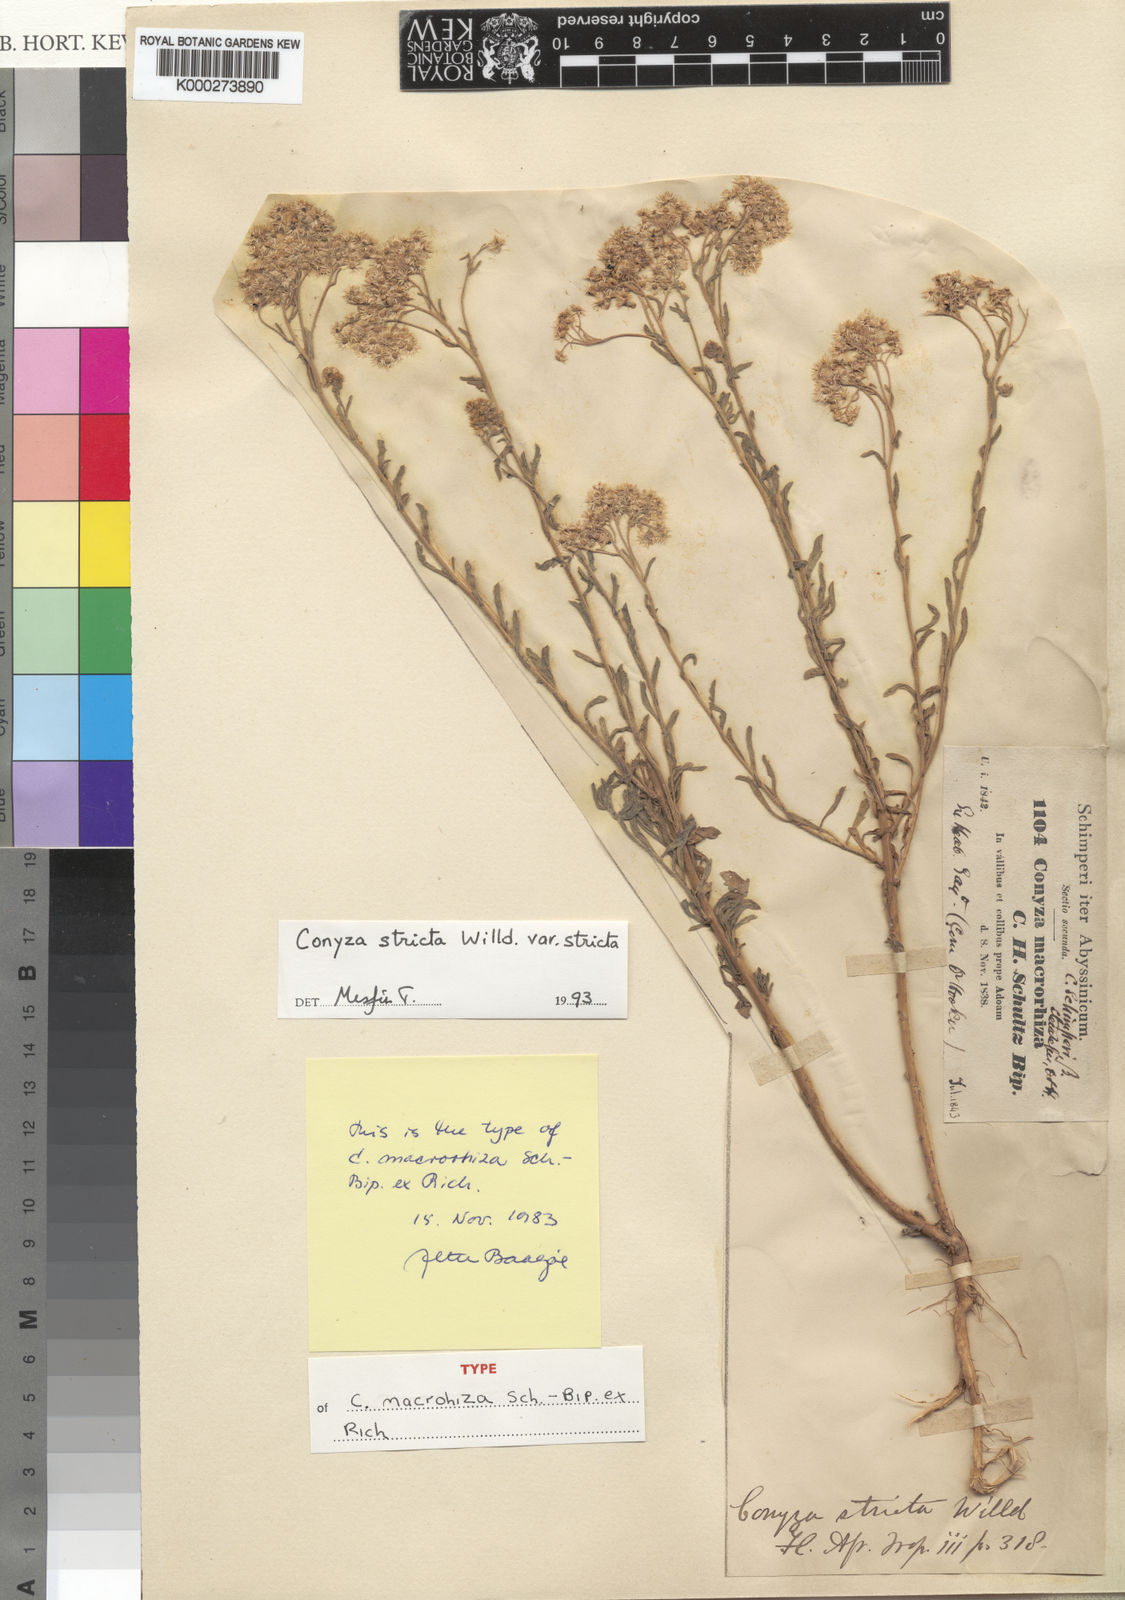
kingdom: Plantae
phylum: Tracheophyta
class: Magnoliopsida
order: Asterales
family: Asteraceae
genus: Nidorella
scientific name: Nidorella triloba
